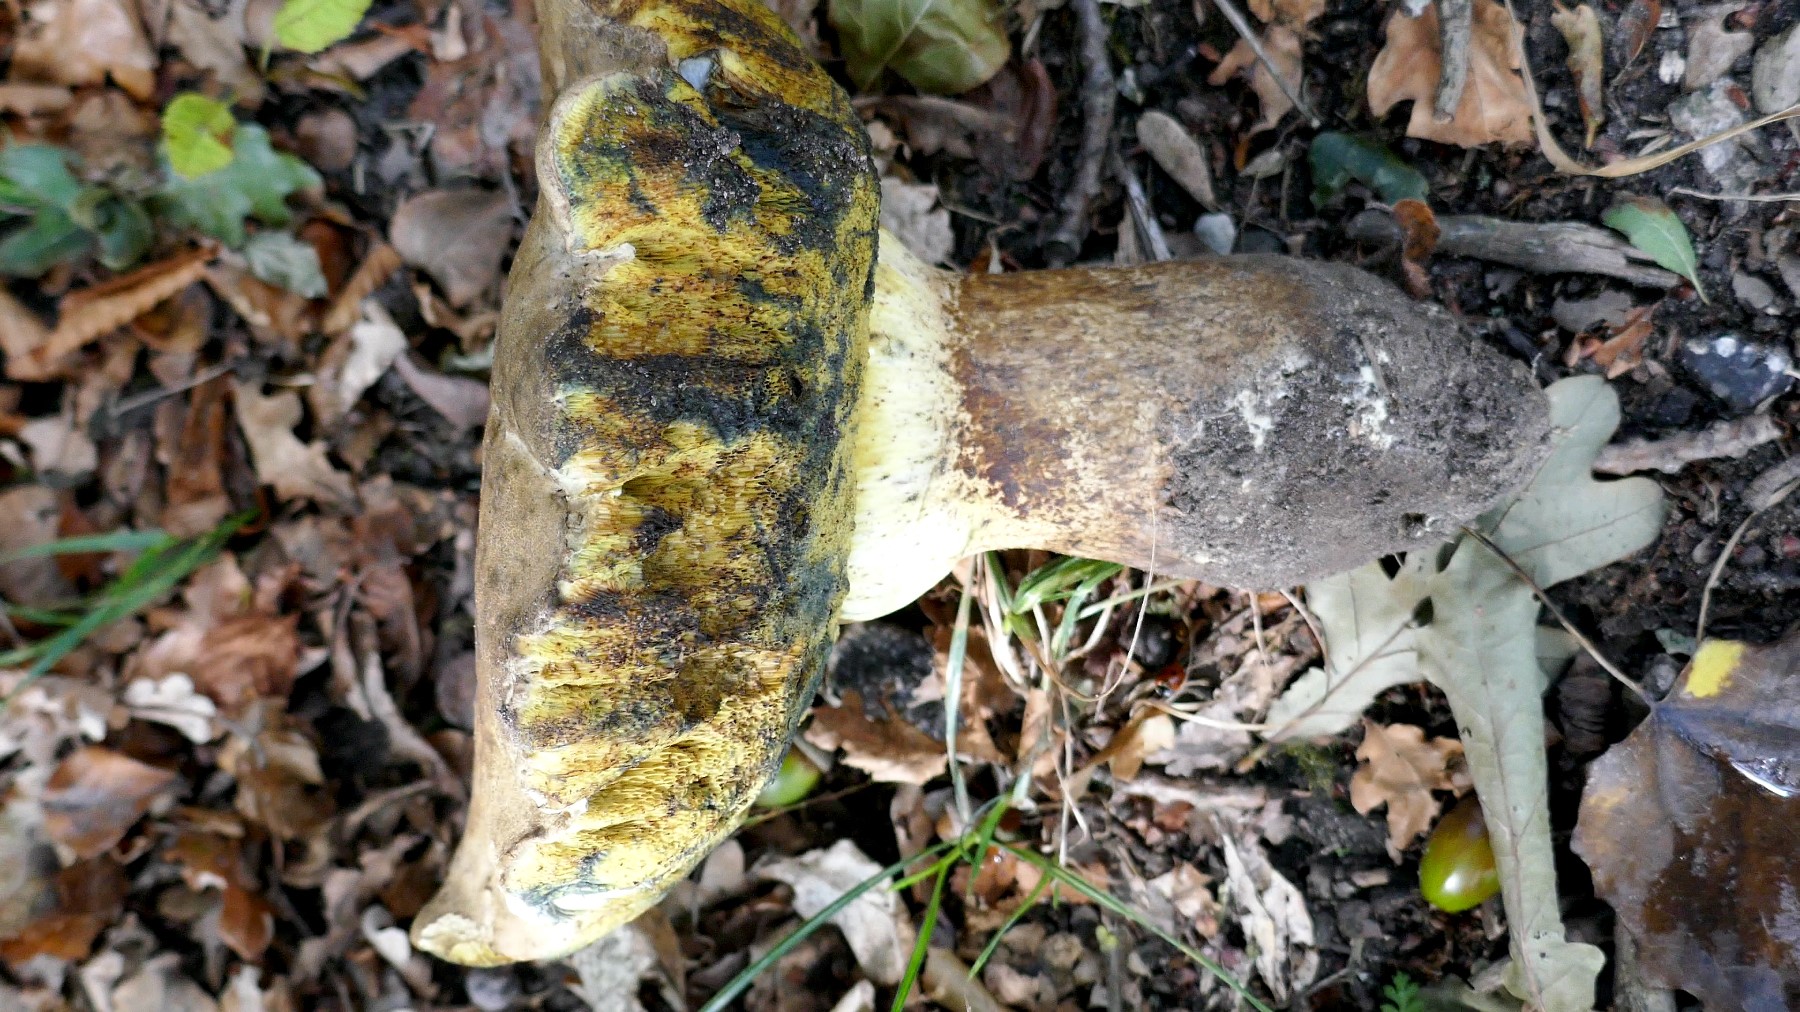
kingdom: Fungi
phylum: Basidiomycota
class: Agaricomycetes
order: Boletales
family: Boletaceae
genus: Caloboletus
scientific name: Caloboletus radicans
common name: rod-rørhat
